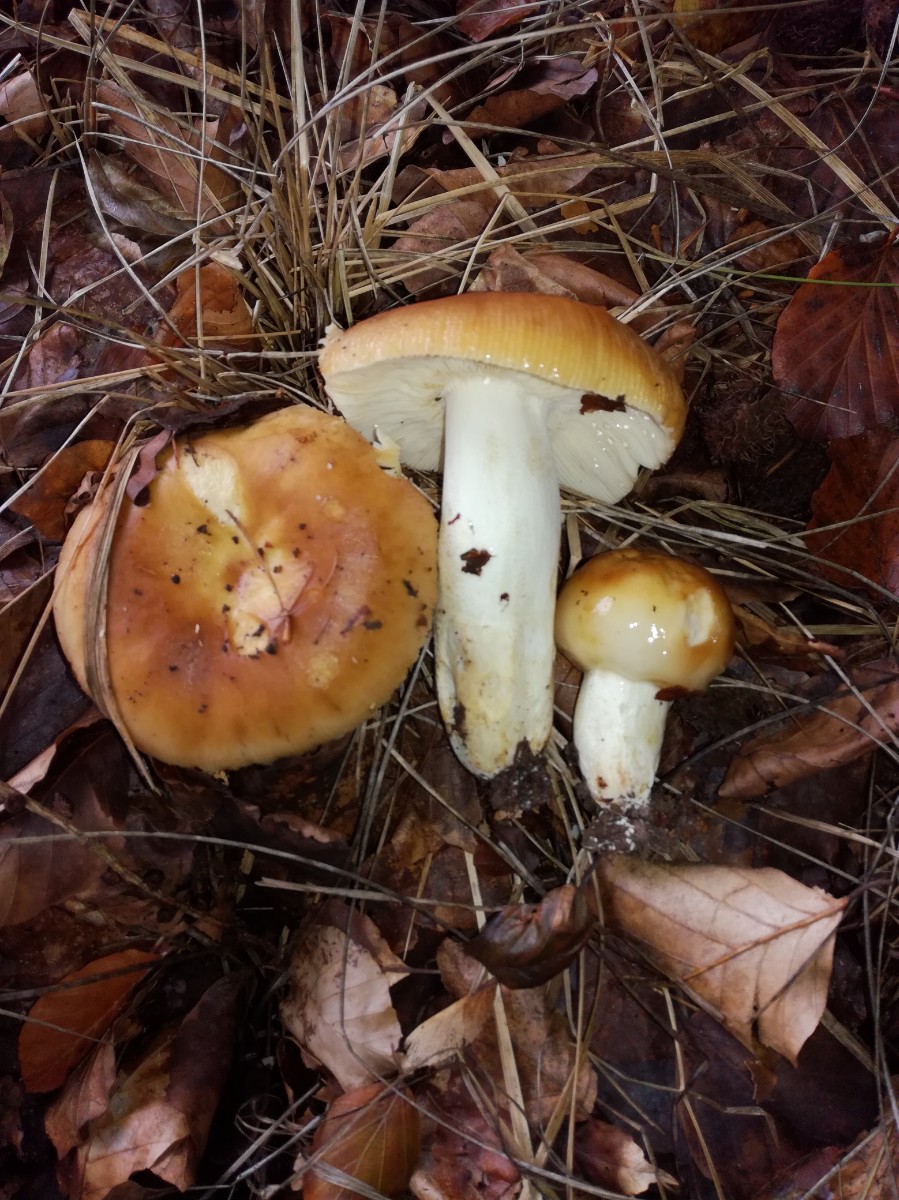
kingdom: Fungi
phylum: Basidiomycota
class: Agaricomycetes
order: Russulales
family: Russulaceae
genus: Russula
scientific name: Russula foetens
